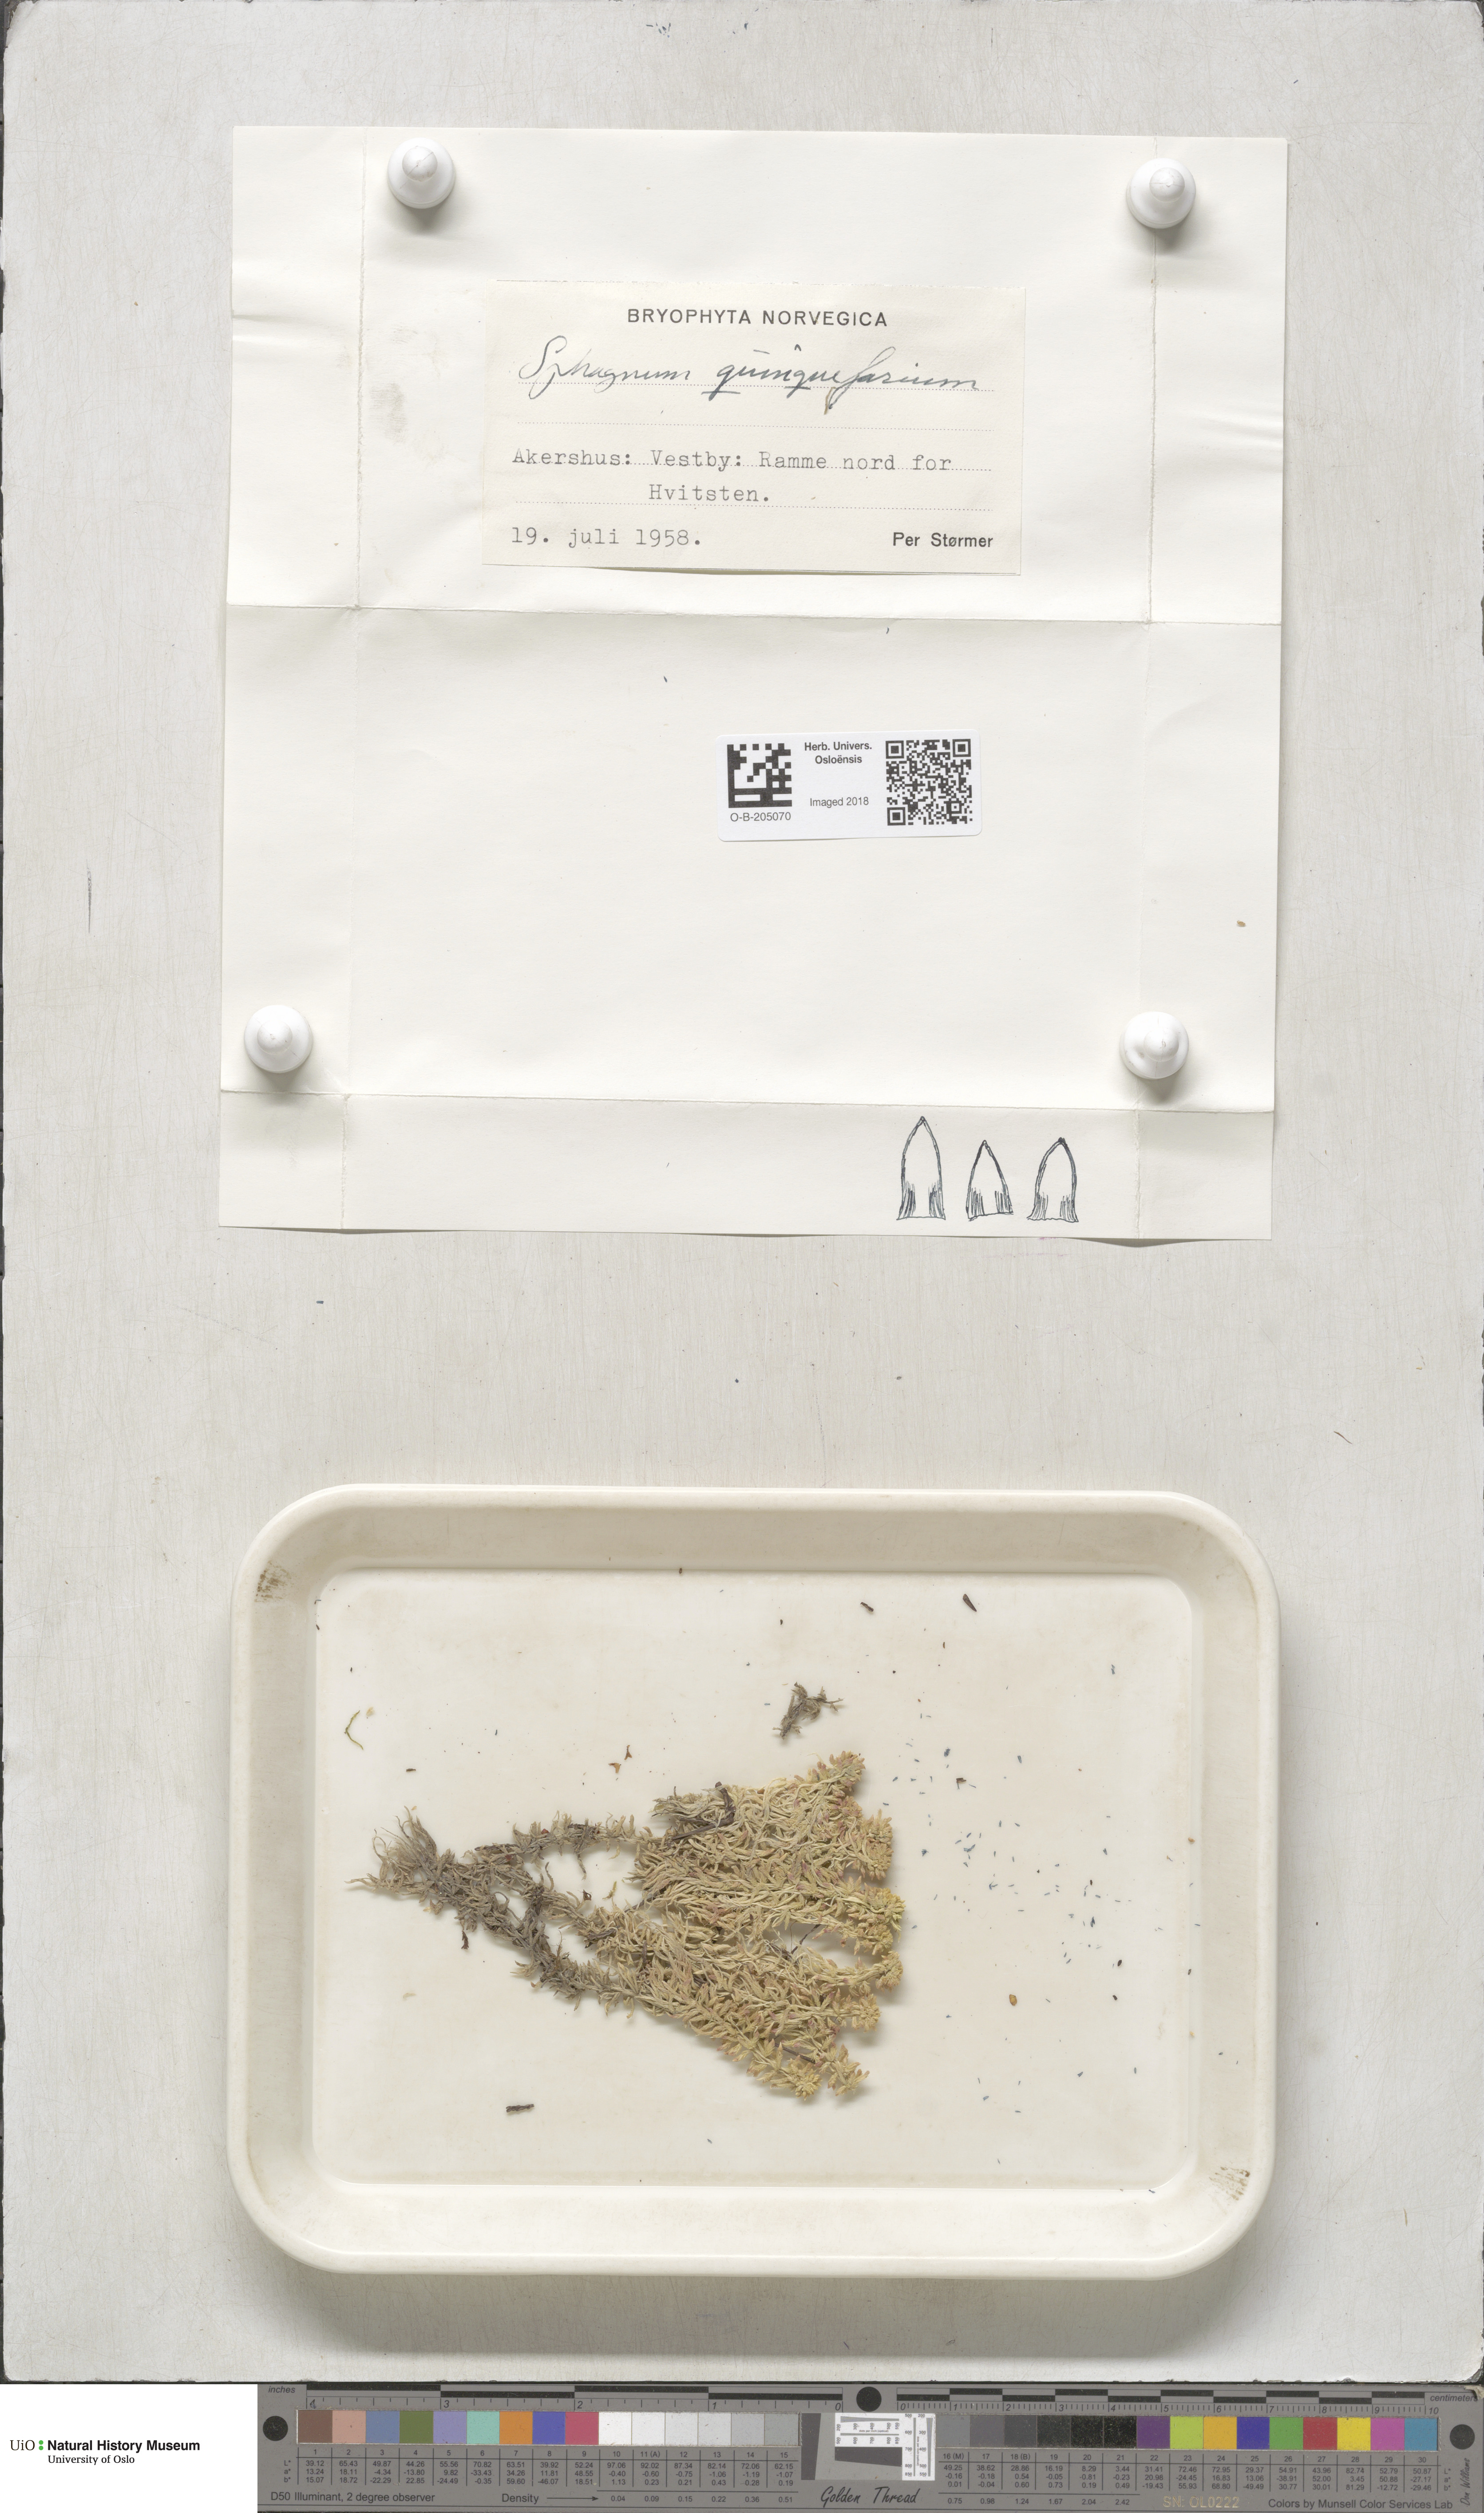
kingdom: Plantae
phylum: Bryophyta
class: Sphagnopsida
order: Sphagnales
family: Sphagnaceae
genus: Sphagnum
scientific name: Sphagnum quinquefarium
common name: Five-ranked peat moss
